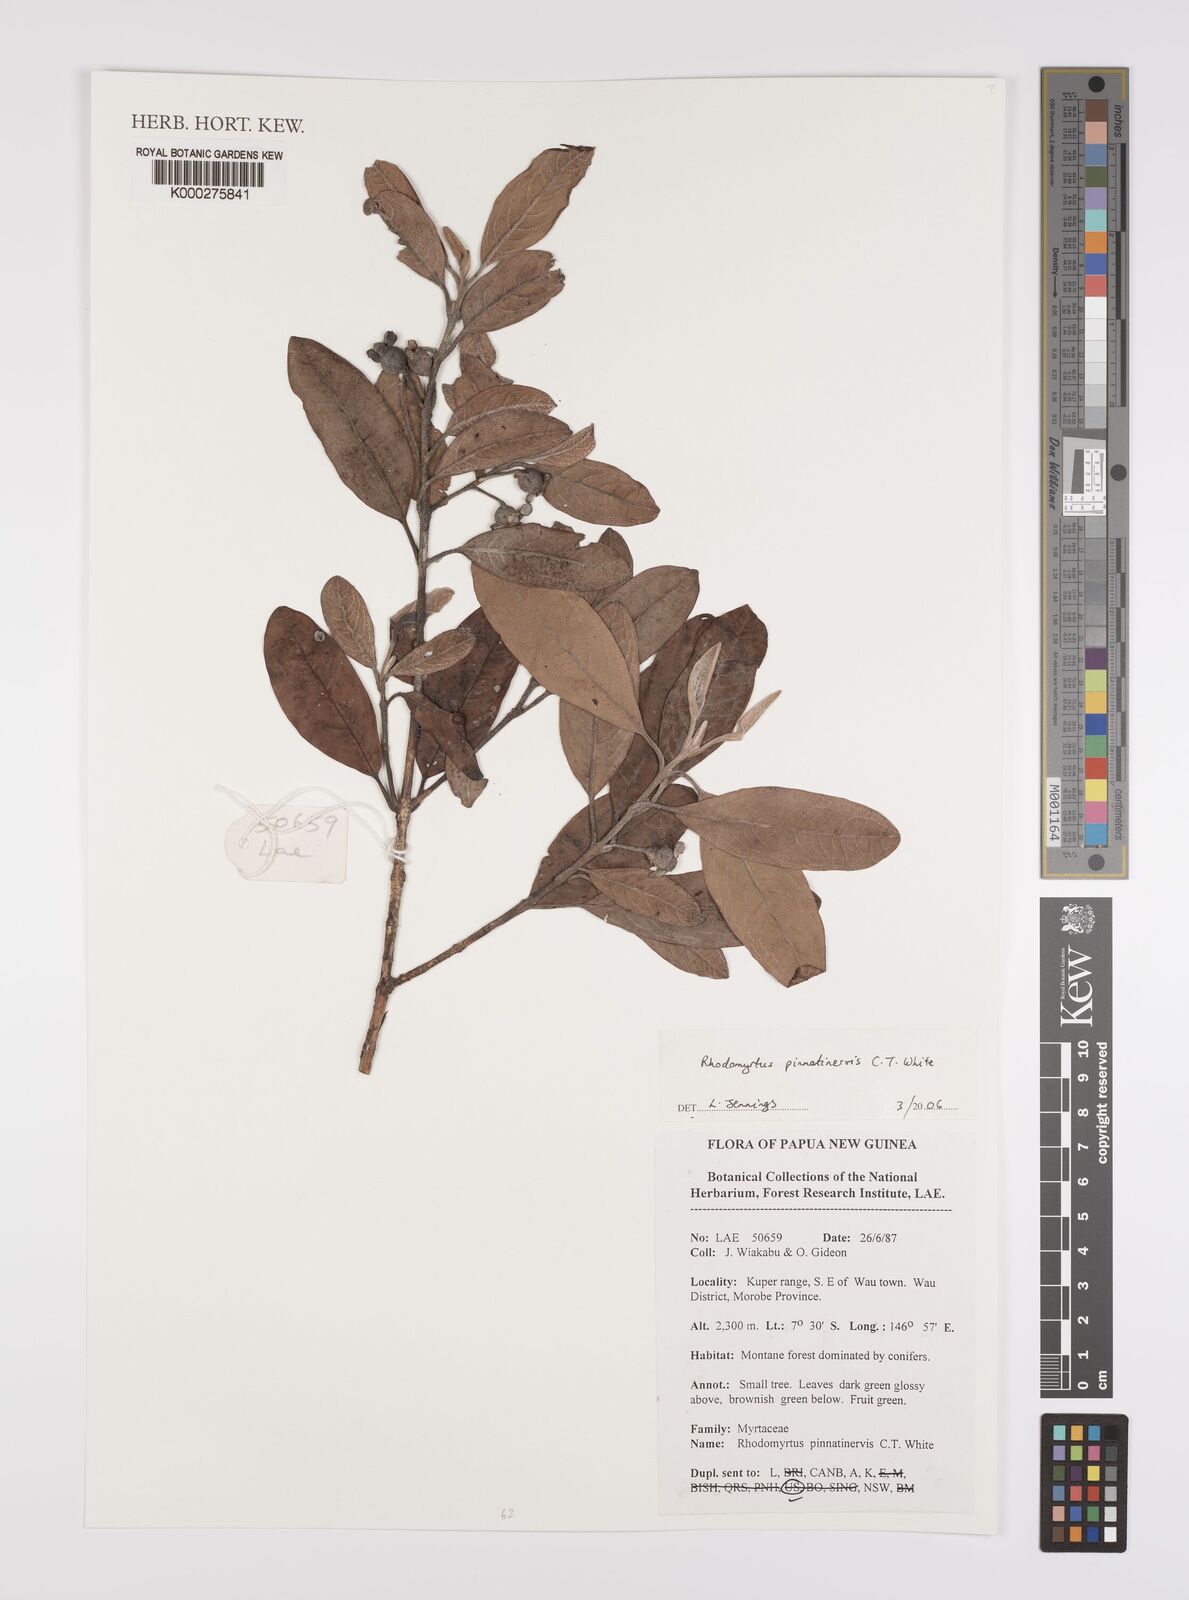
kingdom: Plantae
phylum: Tracheophyta
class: Magnoliopsida
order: Myrtales
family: Myrtaceae
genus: Rhodomyrtus
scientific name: Rhodomyrtus pinnatinervis
